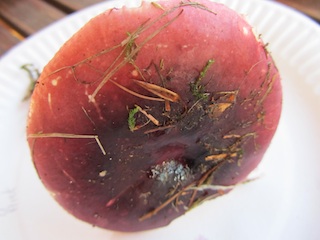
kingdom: Fungi
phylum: Basidiomycota
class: Agaricomycetes
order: Russulales
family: Russulaceae
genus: Russula
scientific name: Russula atrorubens
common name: sortrød skørhat
